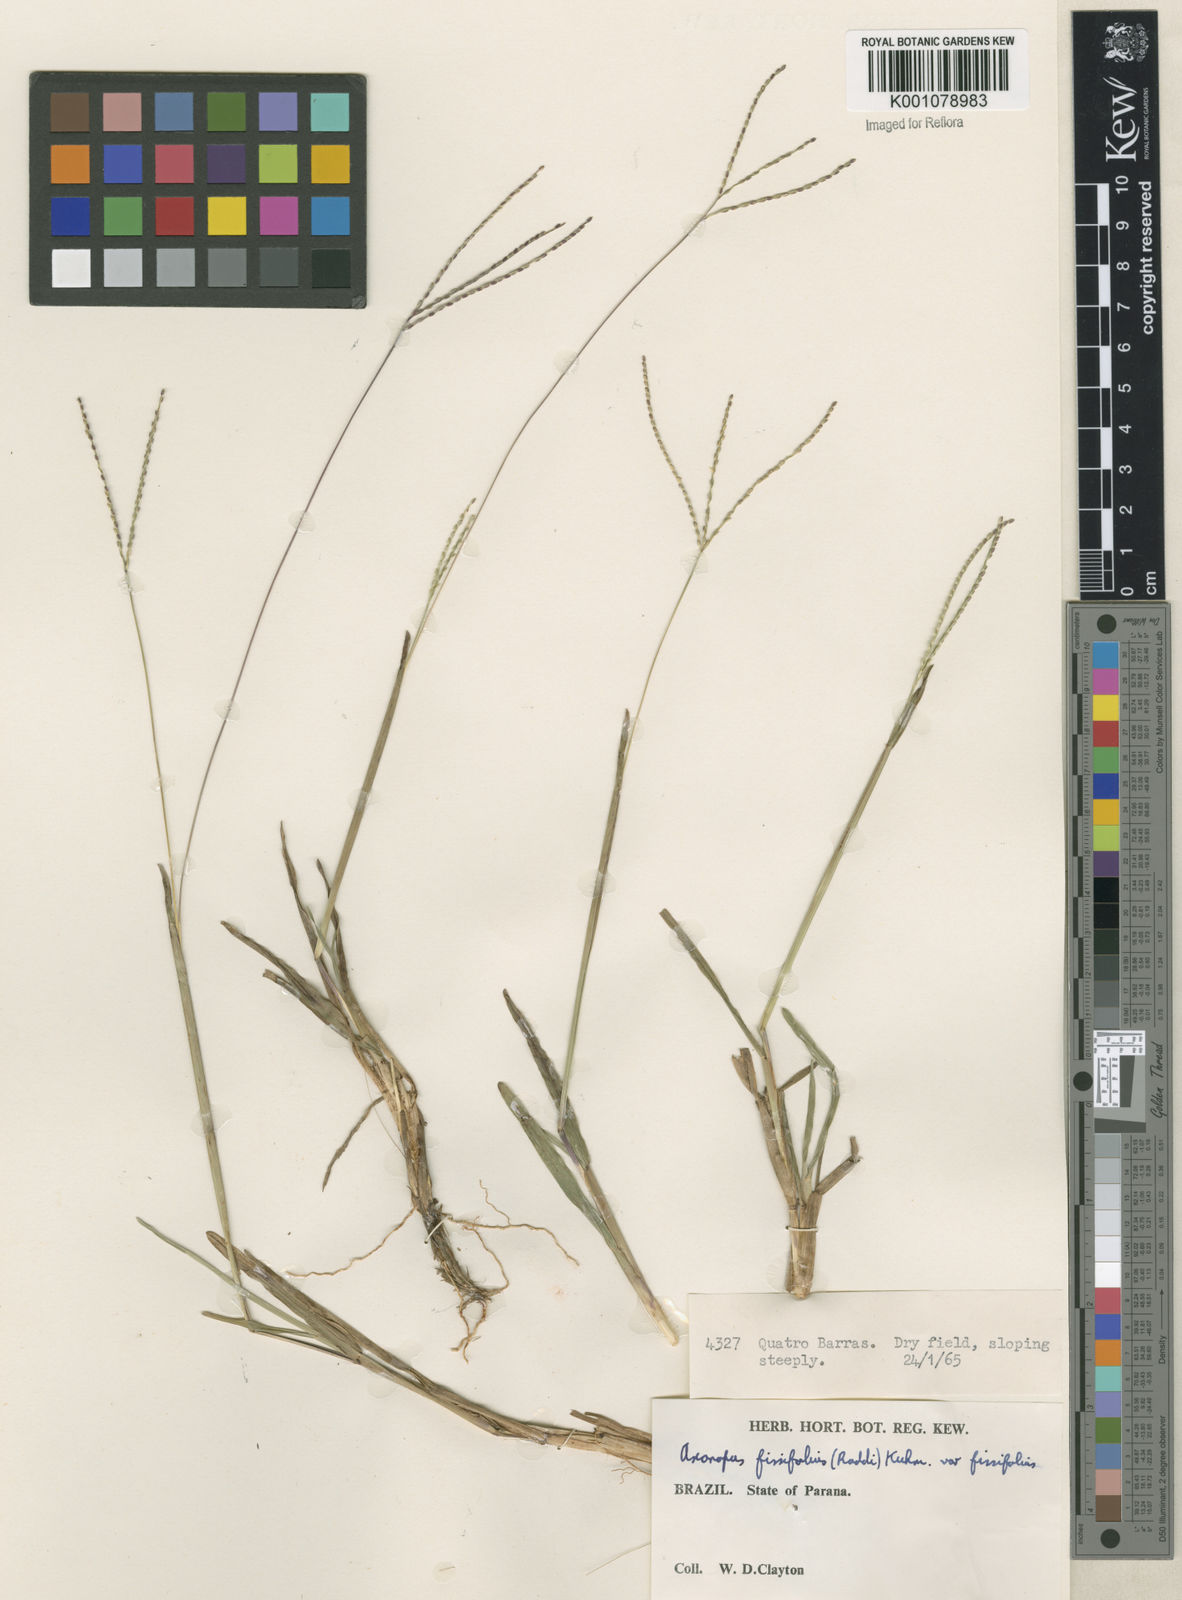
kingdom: Plantae
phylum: Tracheophyta
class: Liliopsida
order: Poales
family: Poaceae
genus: Axonopus
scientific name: Axonopus fissifolius
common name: Common carpetgrass
